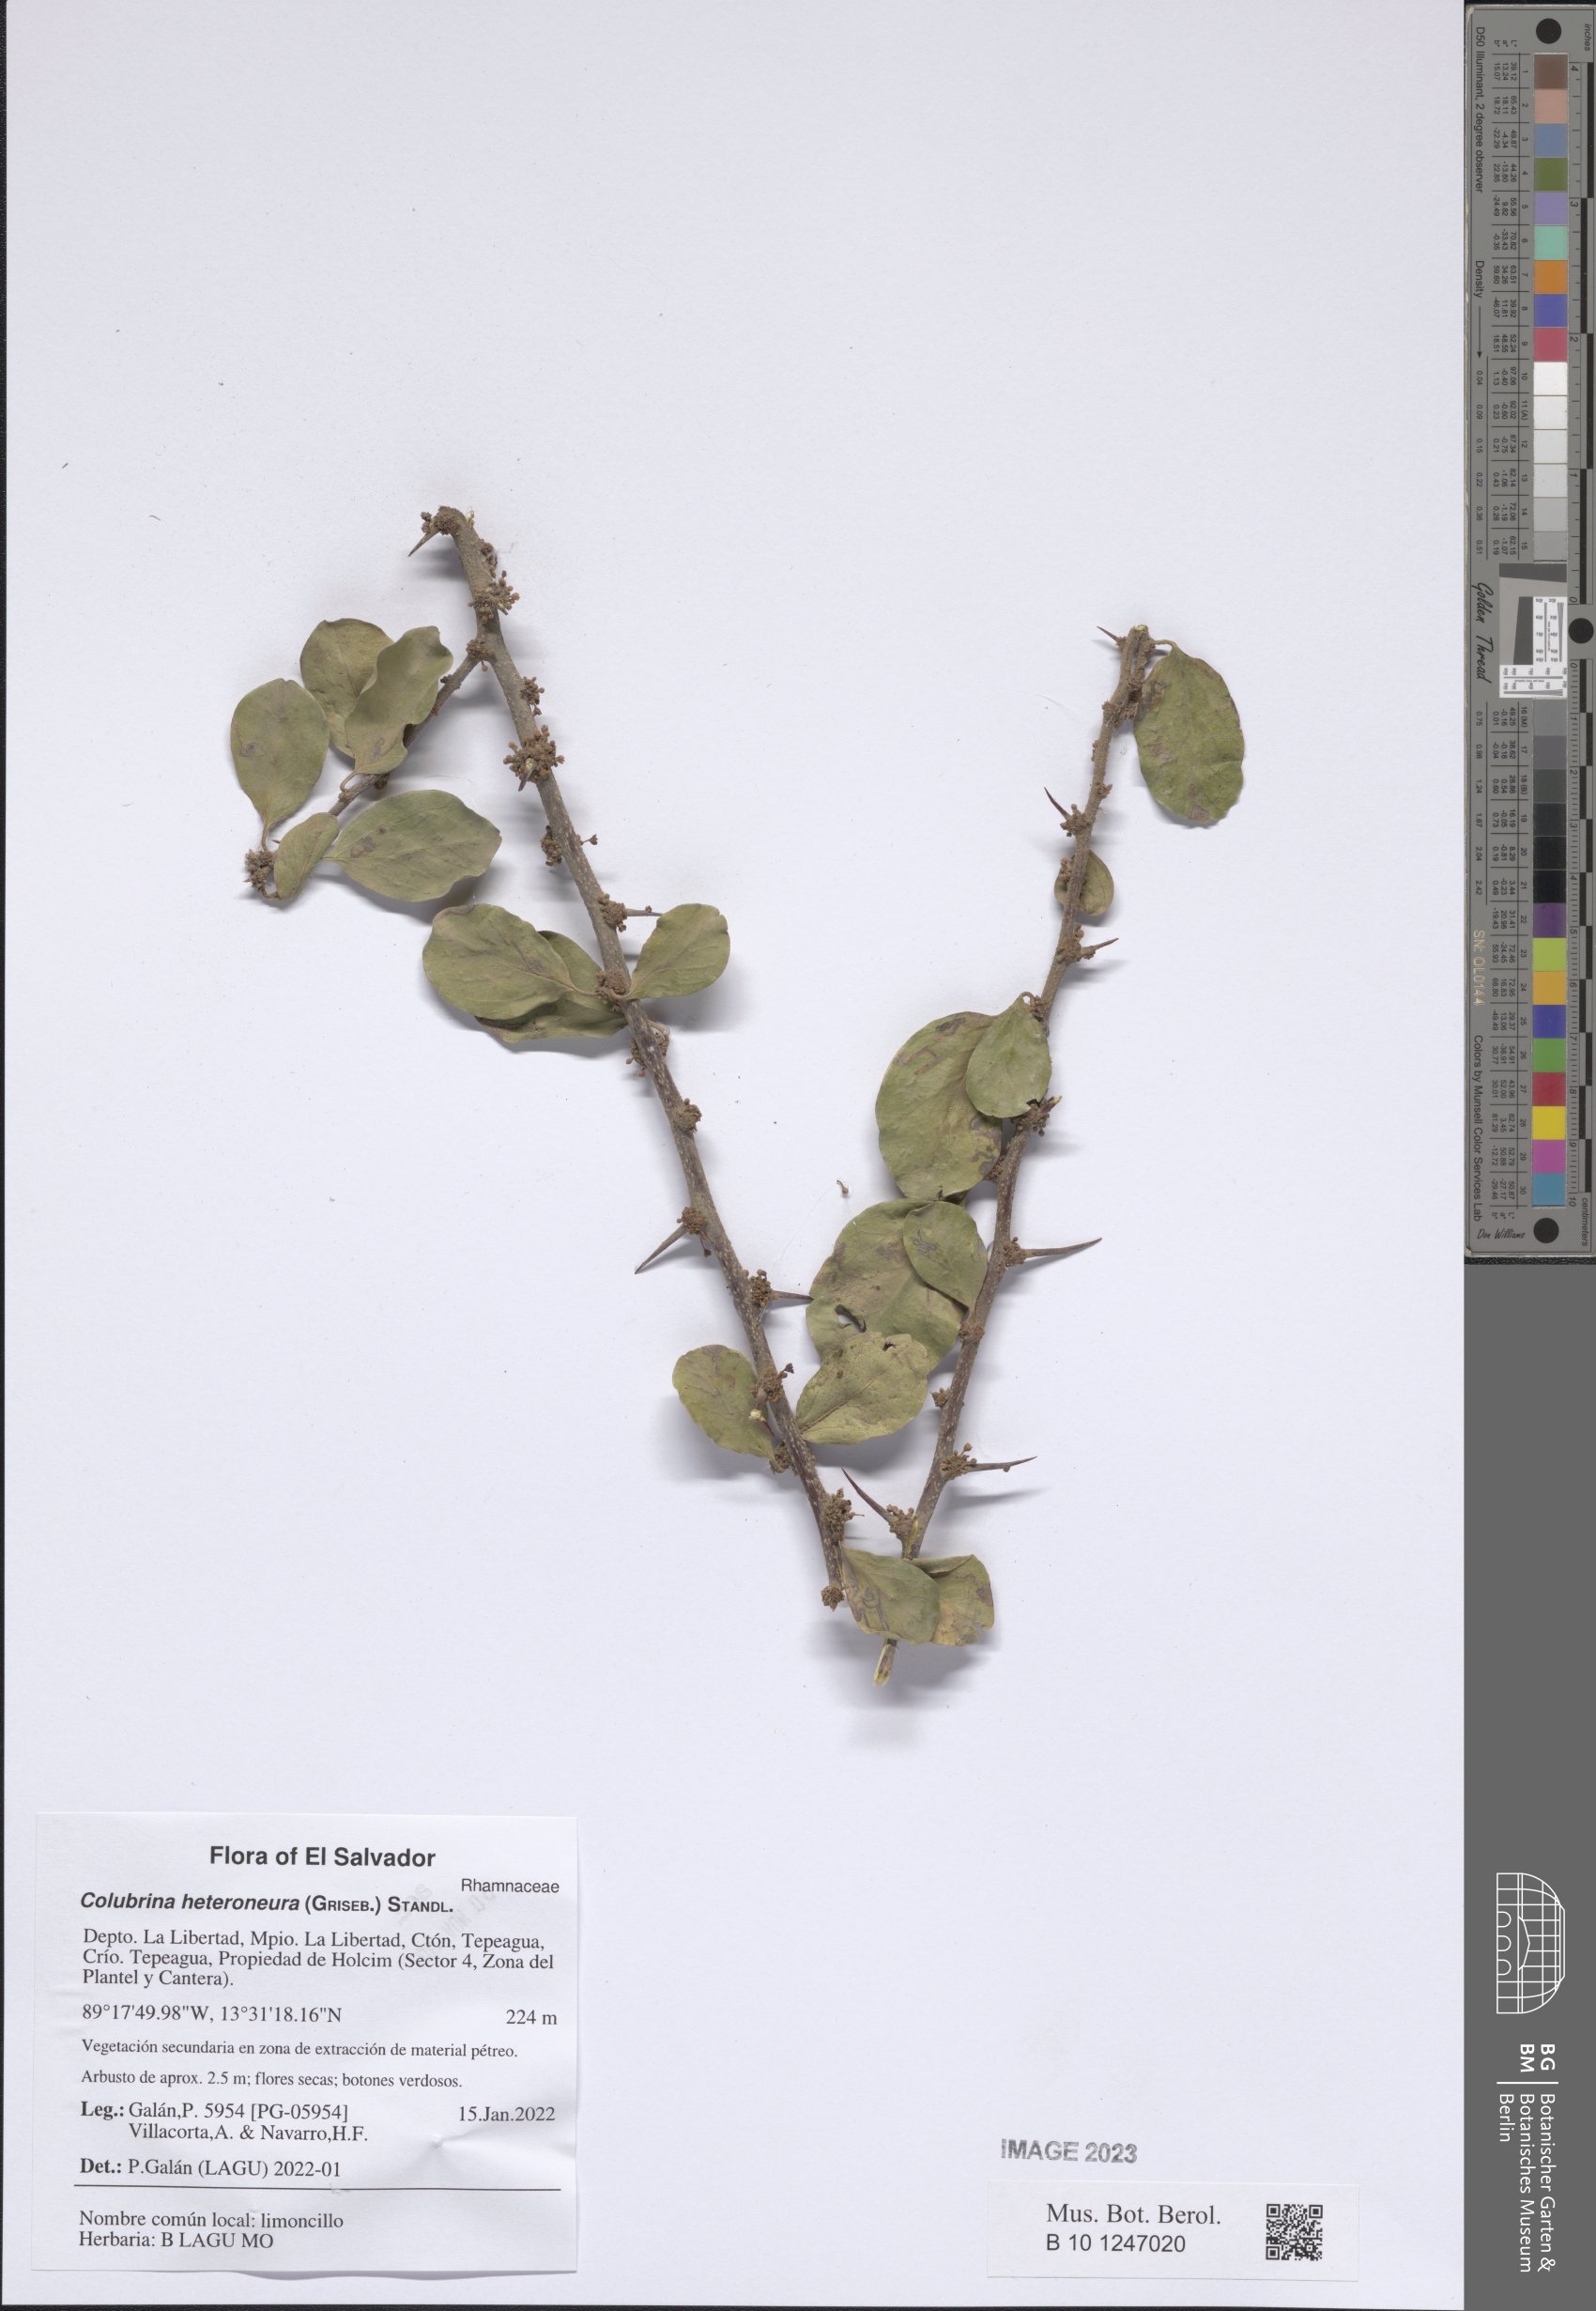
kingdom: Plantae
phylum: Tracheophyta
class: Magnoliopsida
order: Rosales
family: Rhamnaceae
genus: Colubrina
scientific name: Colubrina heteroneura
